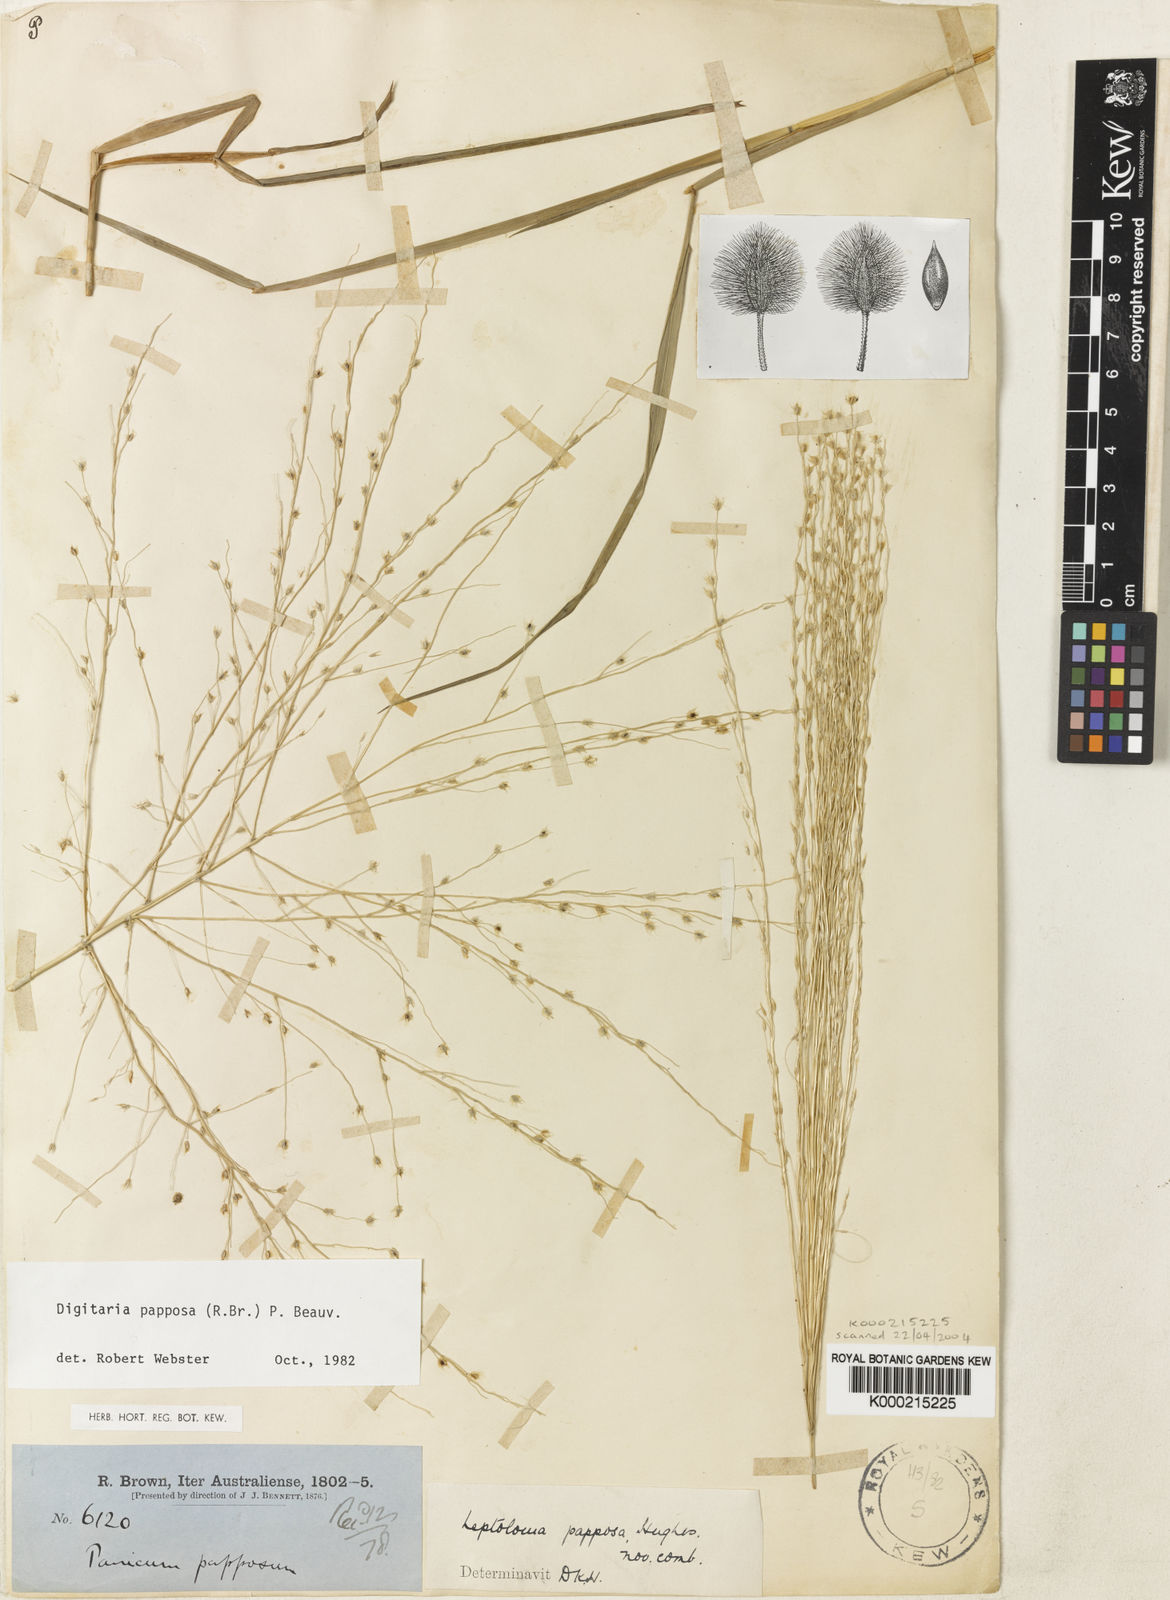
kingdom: Plantae
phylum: Tracheophyta
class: Liliopsida
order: Poales
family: Poaceae
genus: Digitaria
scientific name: Digitaria papposa
